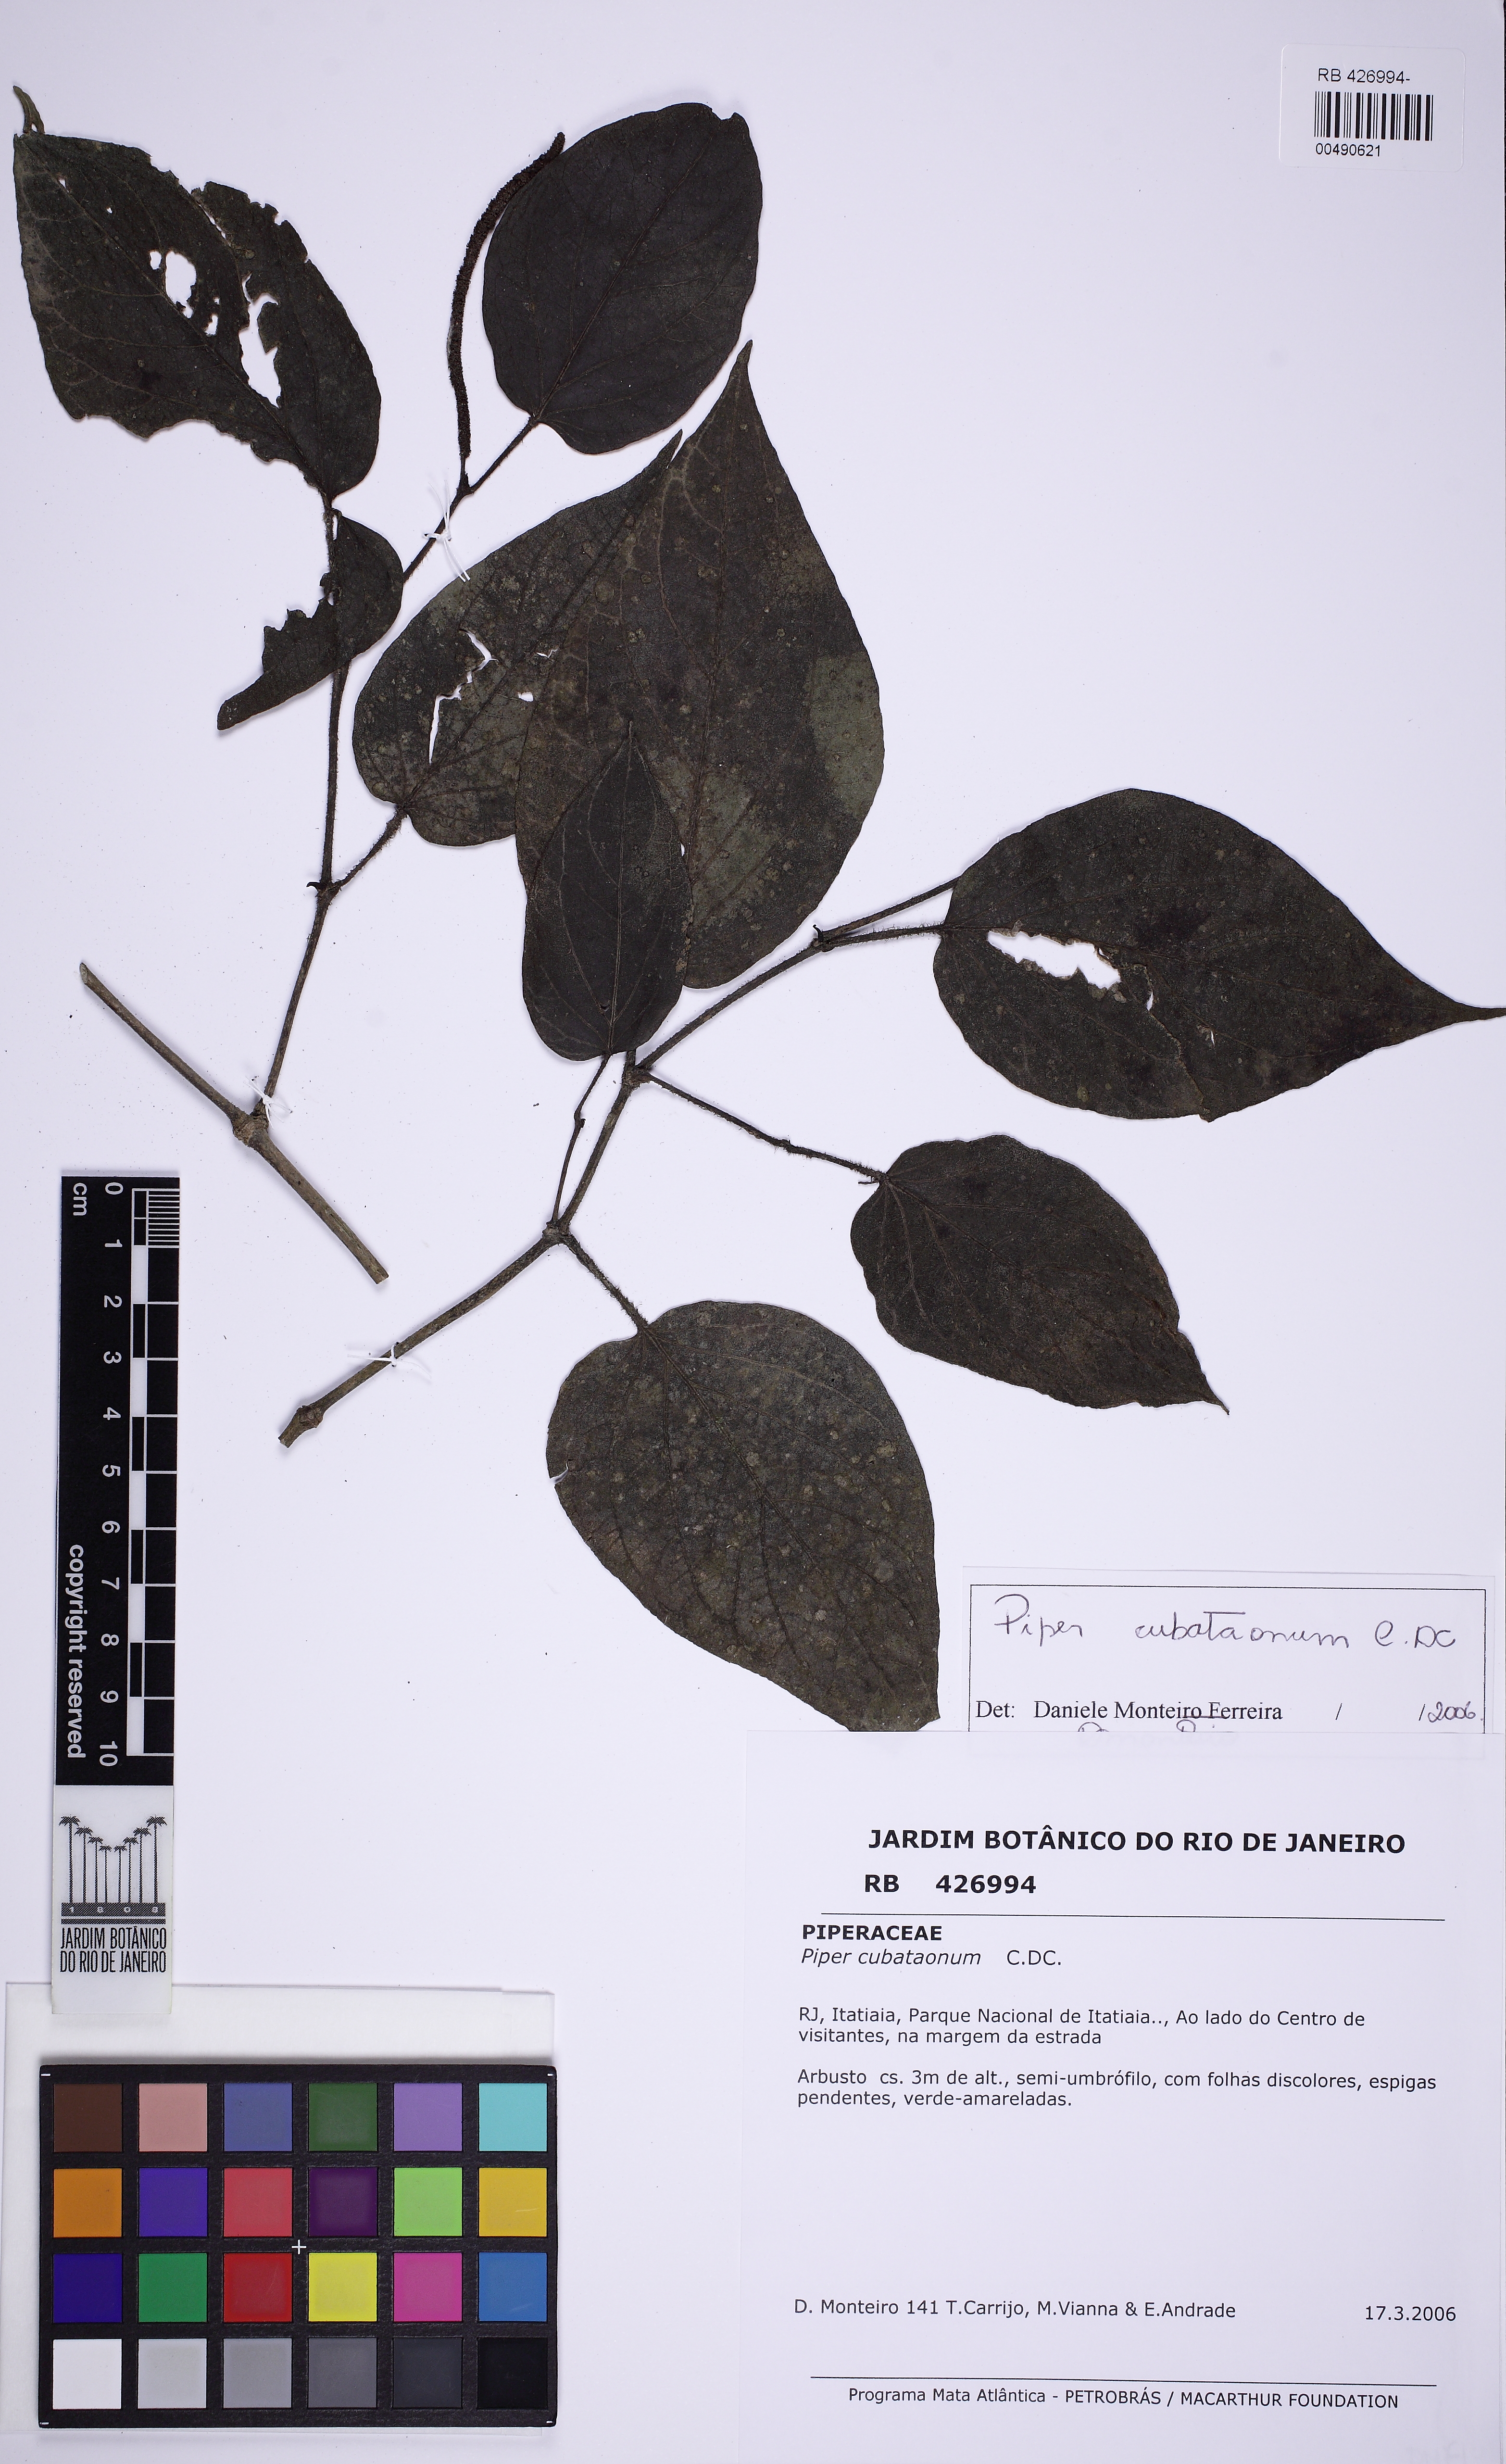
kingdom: Plantae
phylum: Tracheophyta
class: Magnoliopsida
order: Piperales
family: Piperaceae
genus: Piper
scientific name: Piper cubataonum
